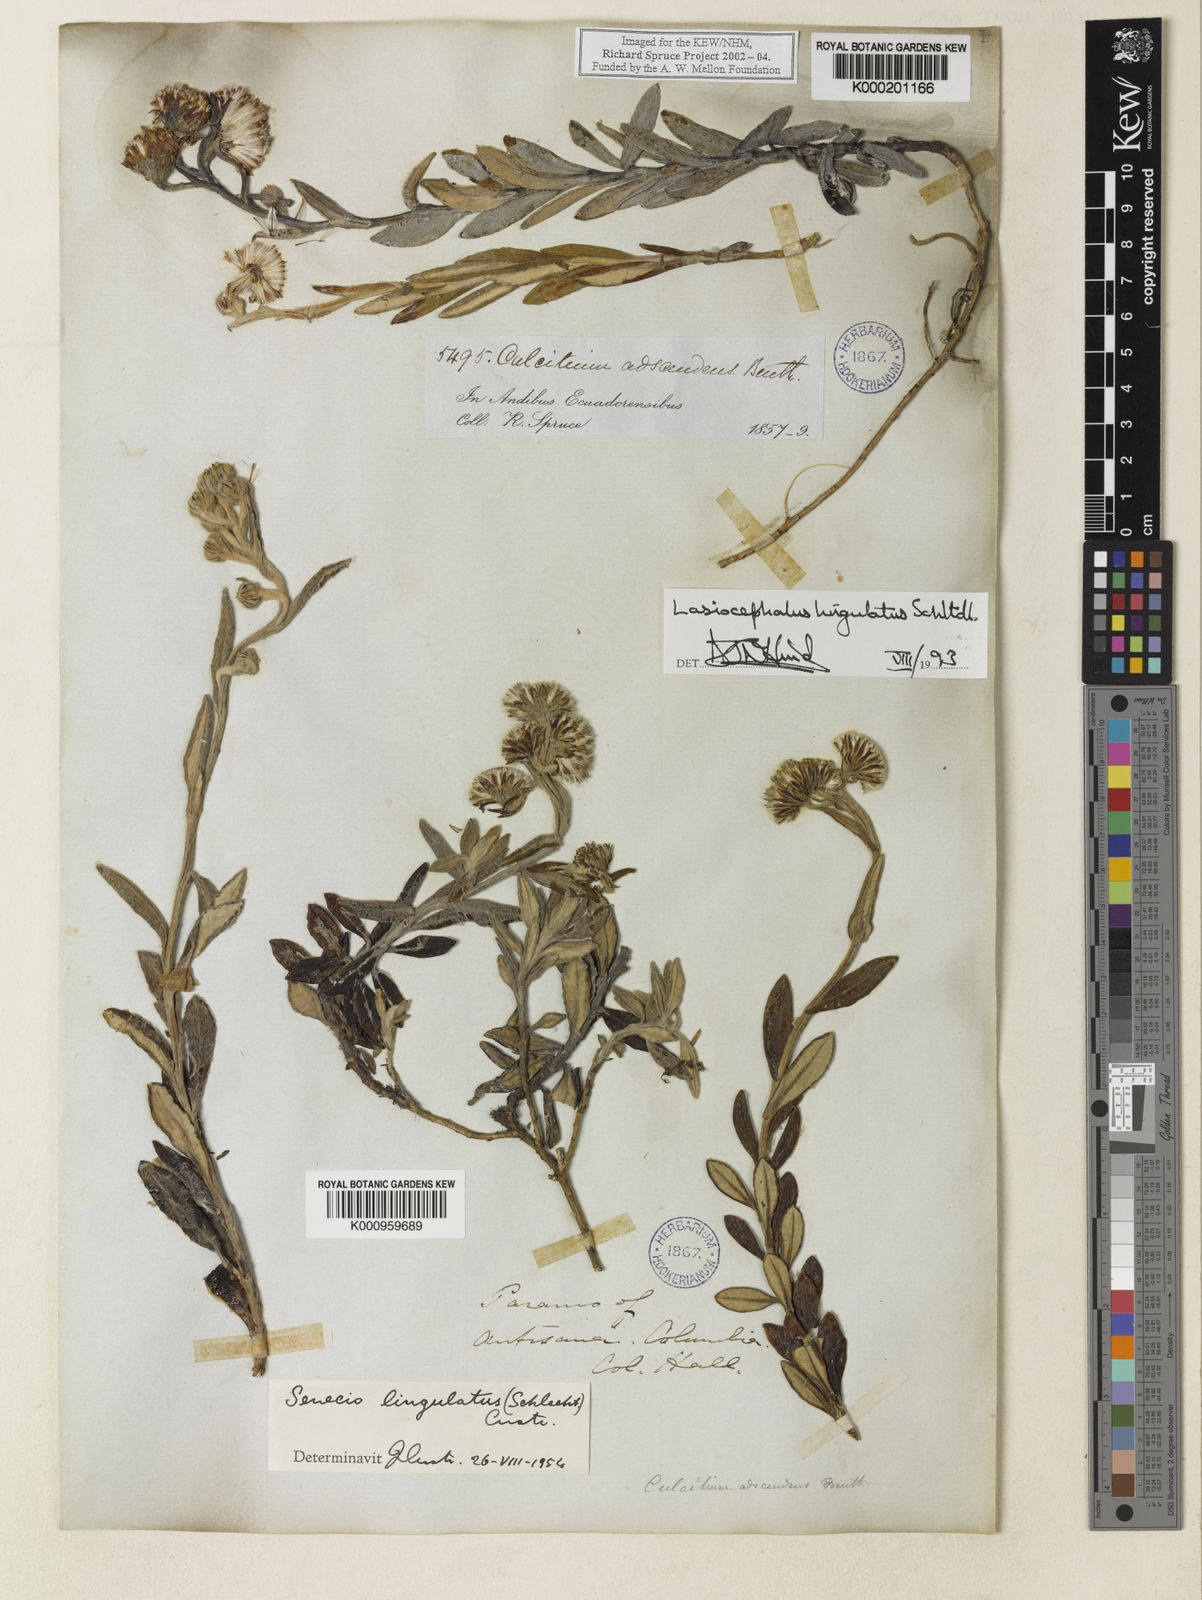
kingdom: Plantae
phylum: Tracheophyta
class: Magnoliopsida
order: Asterales
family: Asteraceae
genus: Lasiocephalus
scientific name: Lasiocephalus lingulatus
